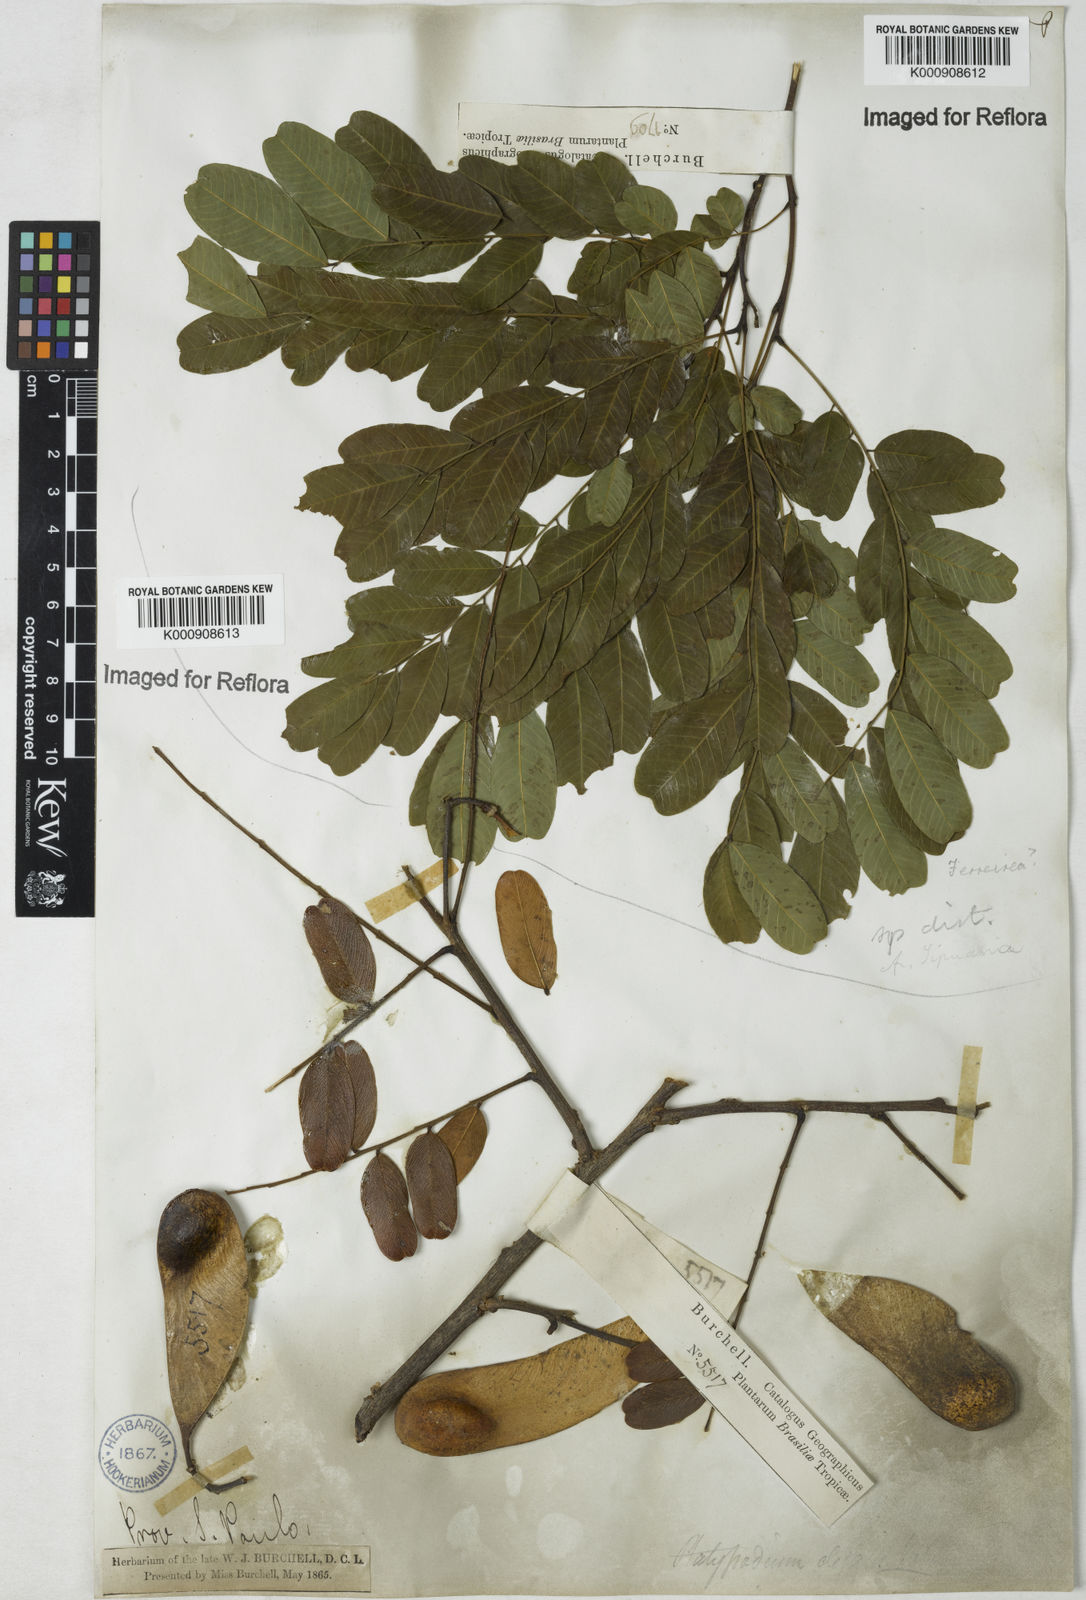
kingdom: Plantae
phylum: Tracheophyta
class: Magnoliopsida
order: Fabales
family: Fabaceae
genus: Platypodium
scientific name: Platypodium viride
